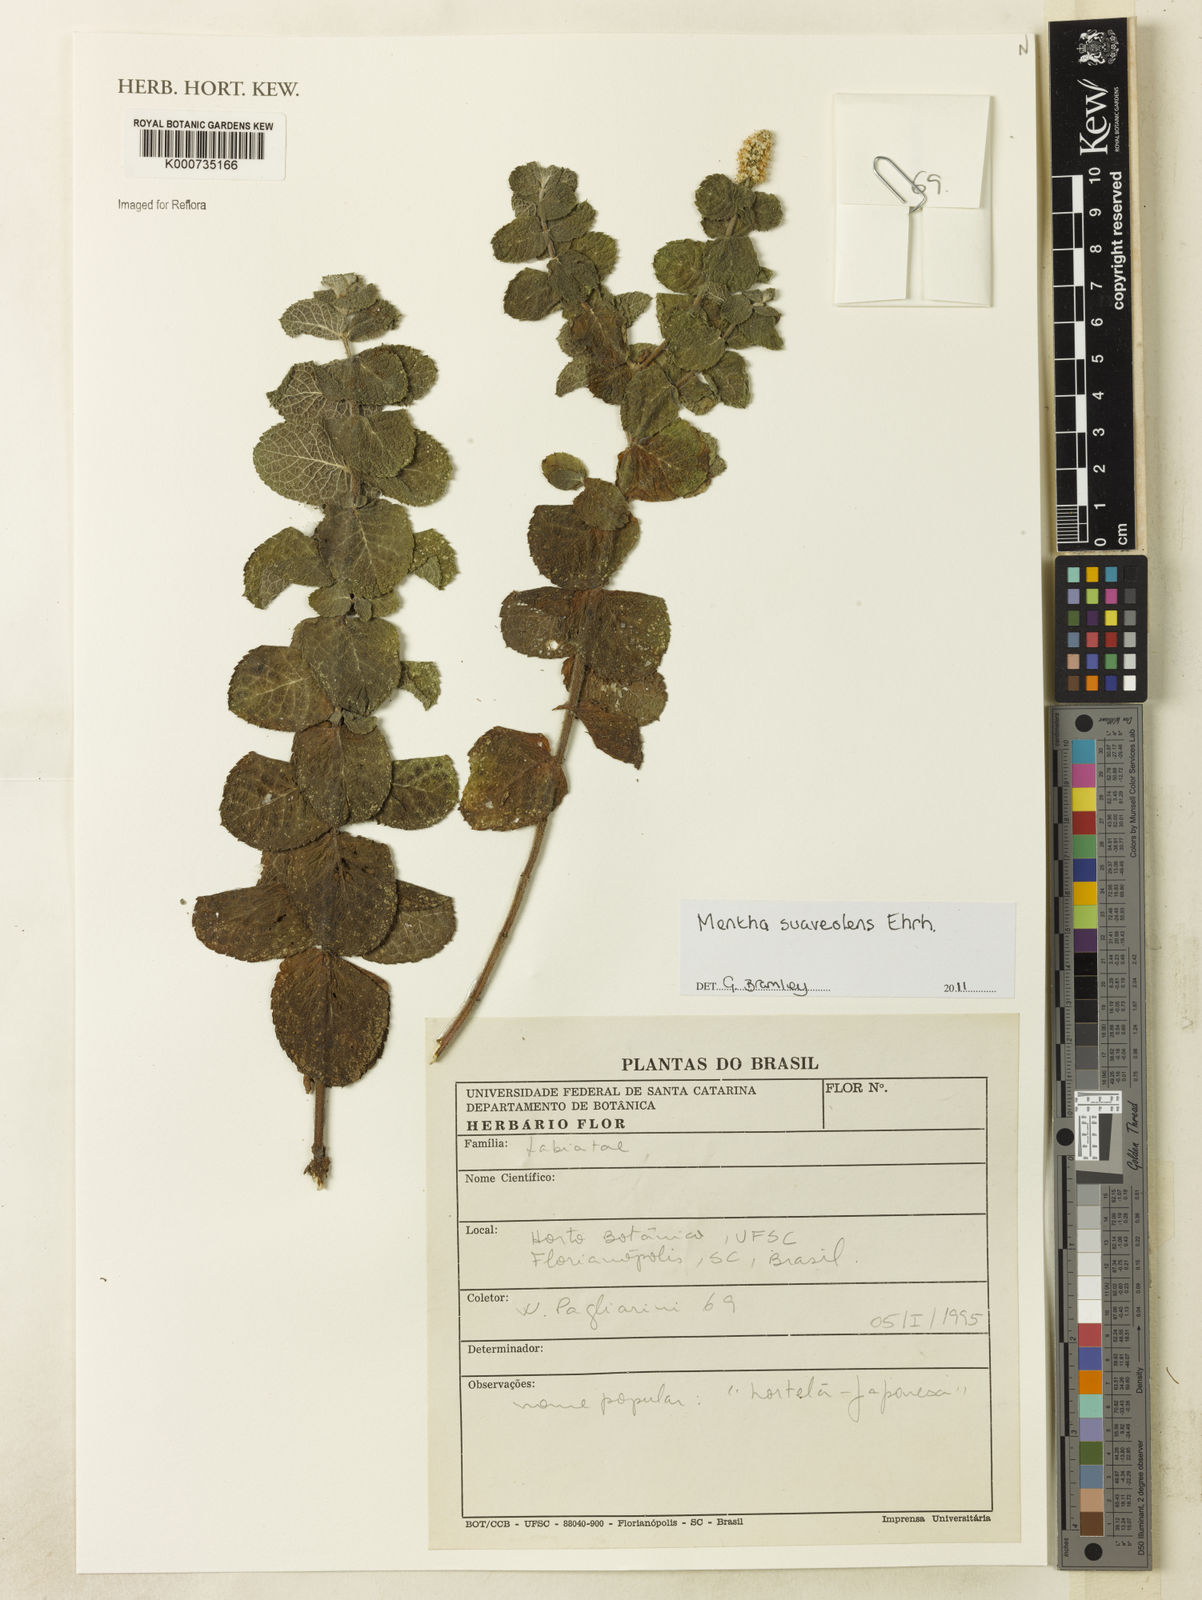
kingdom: Plantae
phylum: Tracheophyta
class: Magnoliopsida
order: Lamiales
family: Lamiaceae
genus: Mentha
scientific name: Mentha suaveolens
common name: Apple mint
